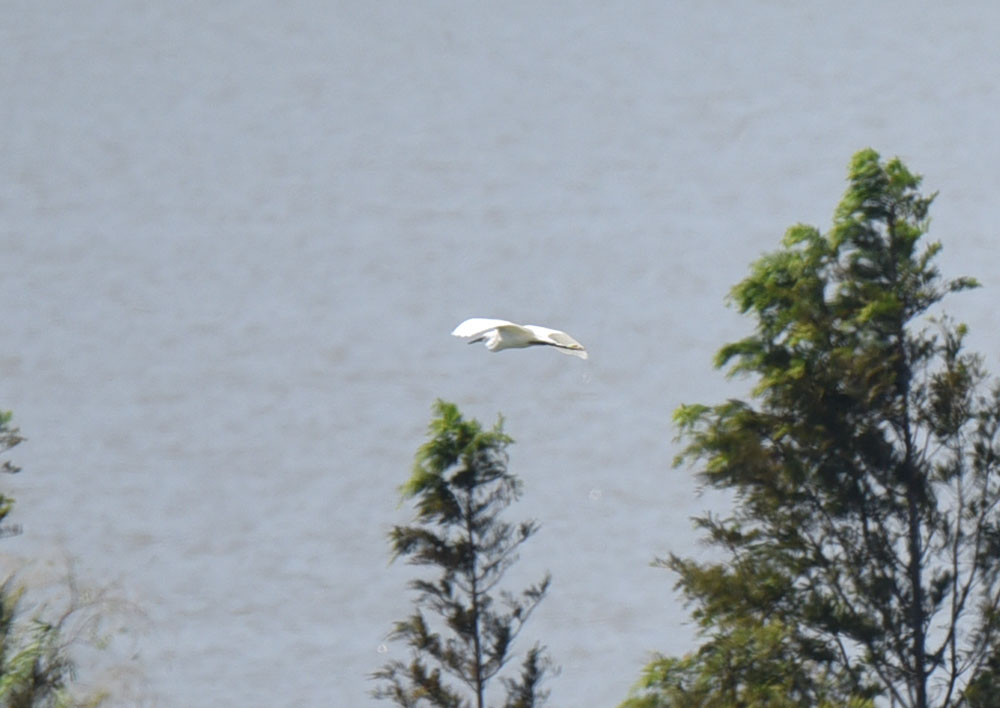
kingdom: Animalia
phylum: Chordata
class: Aves
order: Pelecaniformes
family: Ardeidae
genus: Egretta
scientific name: Egretta garzetta
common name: Little egret
